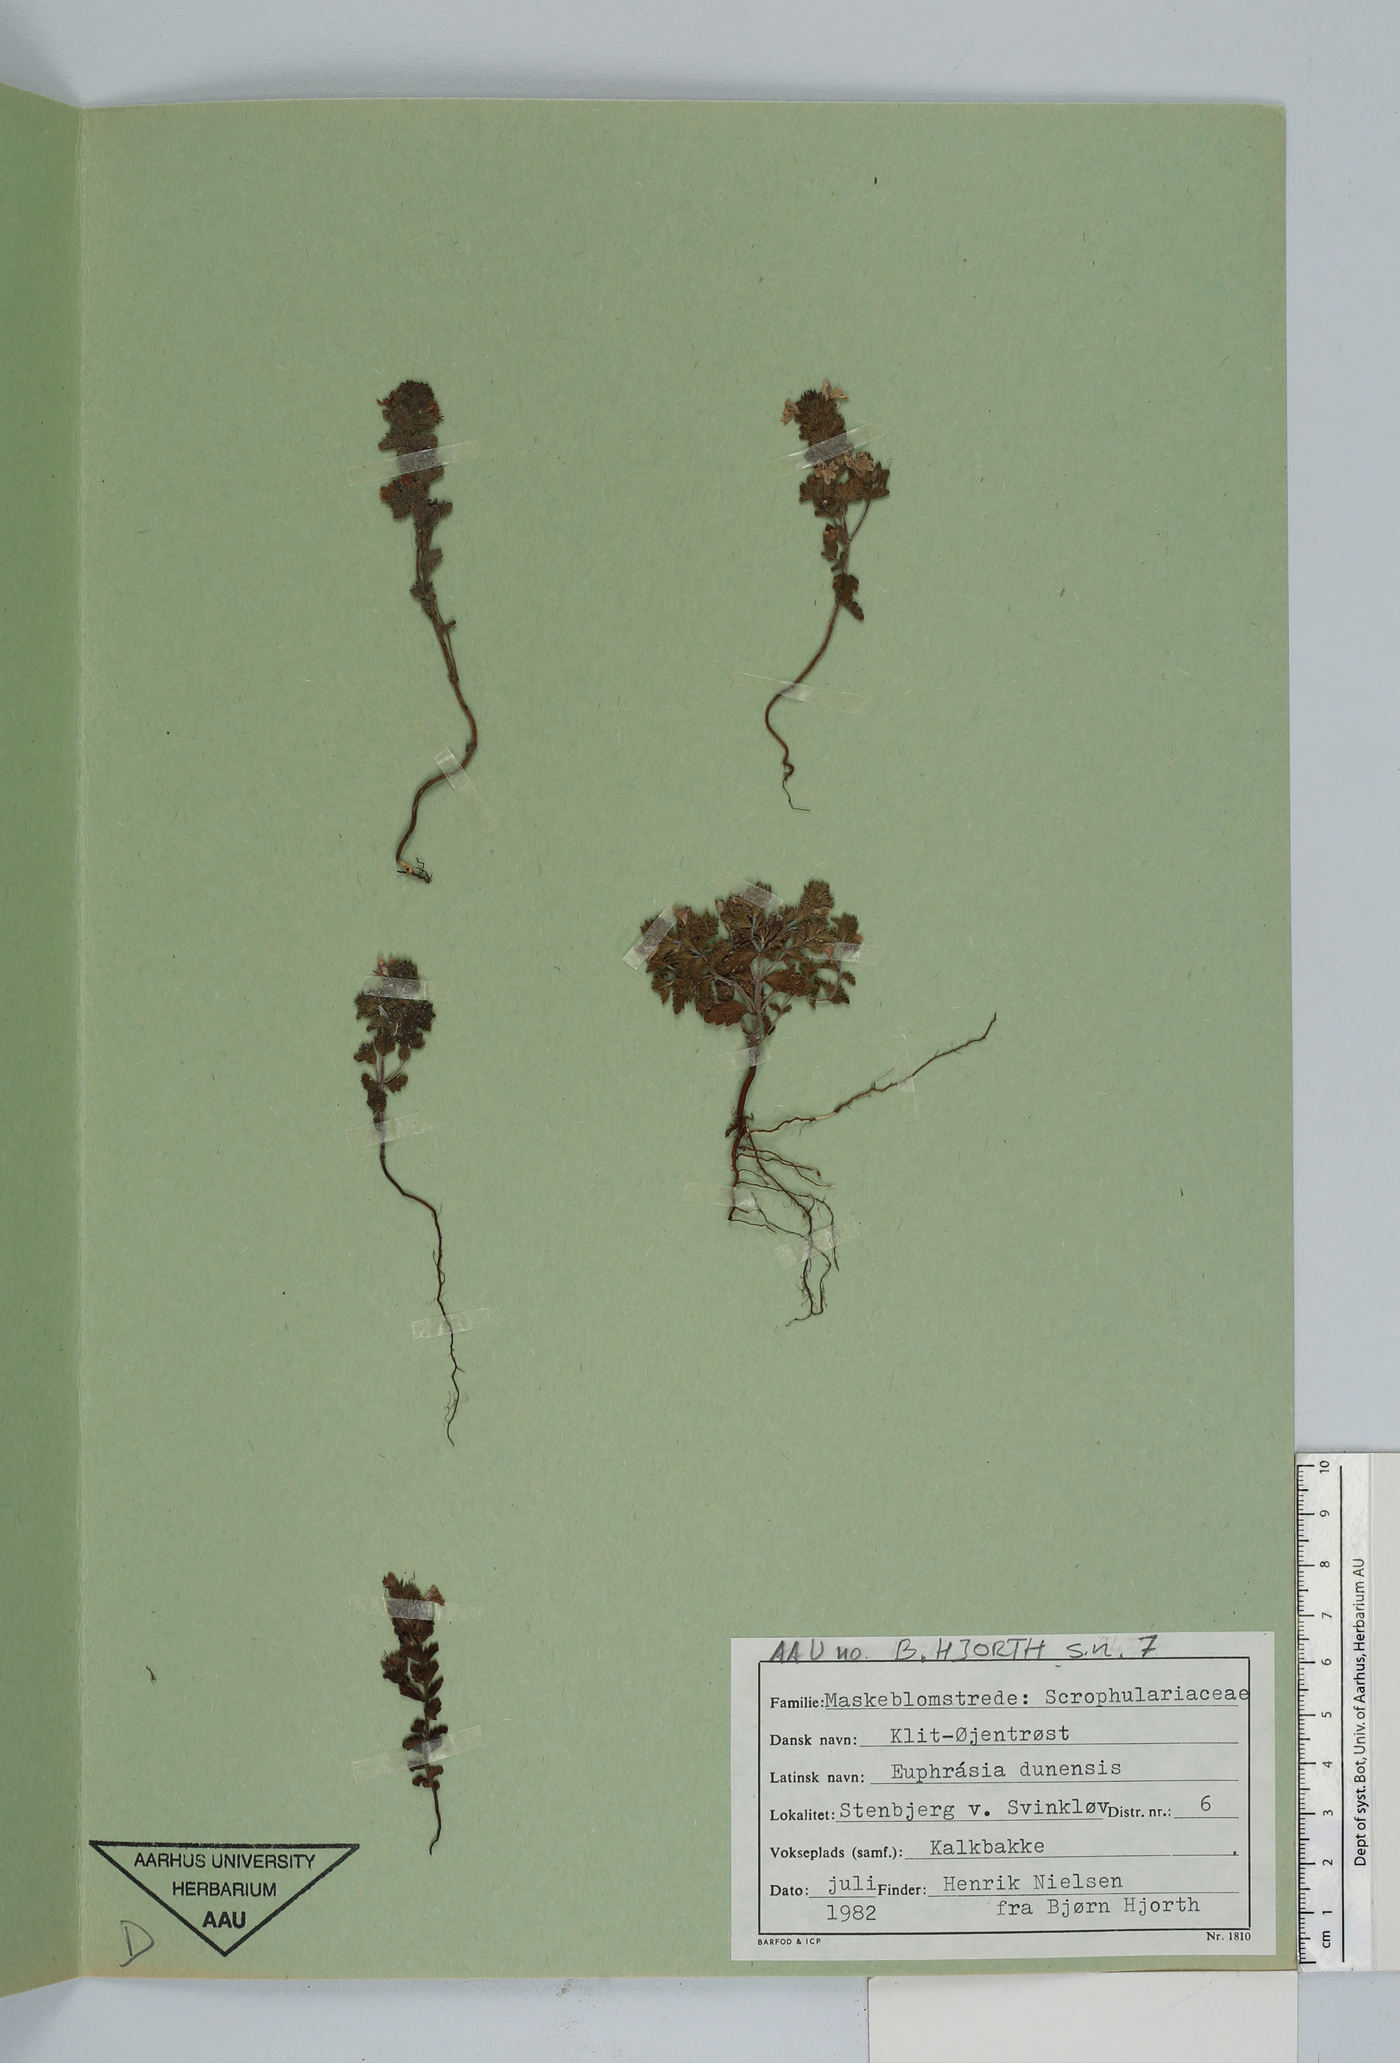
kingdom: Plantae
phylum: Tracheophyta
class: Magnoliopsida
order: Lamiales
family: Orobanchaceae
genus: Euphrasia
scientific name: Euphrasia dunensis
